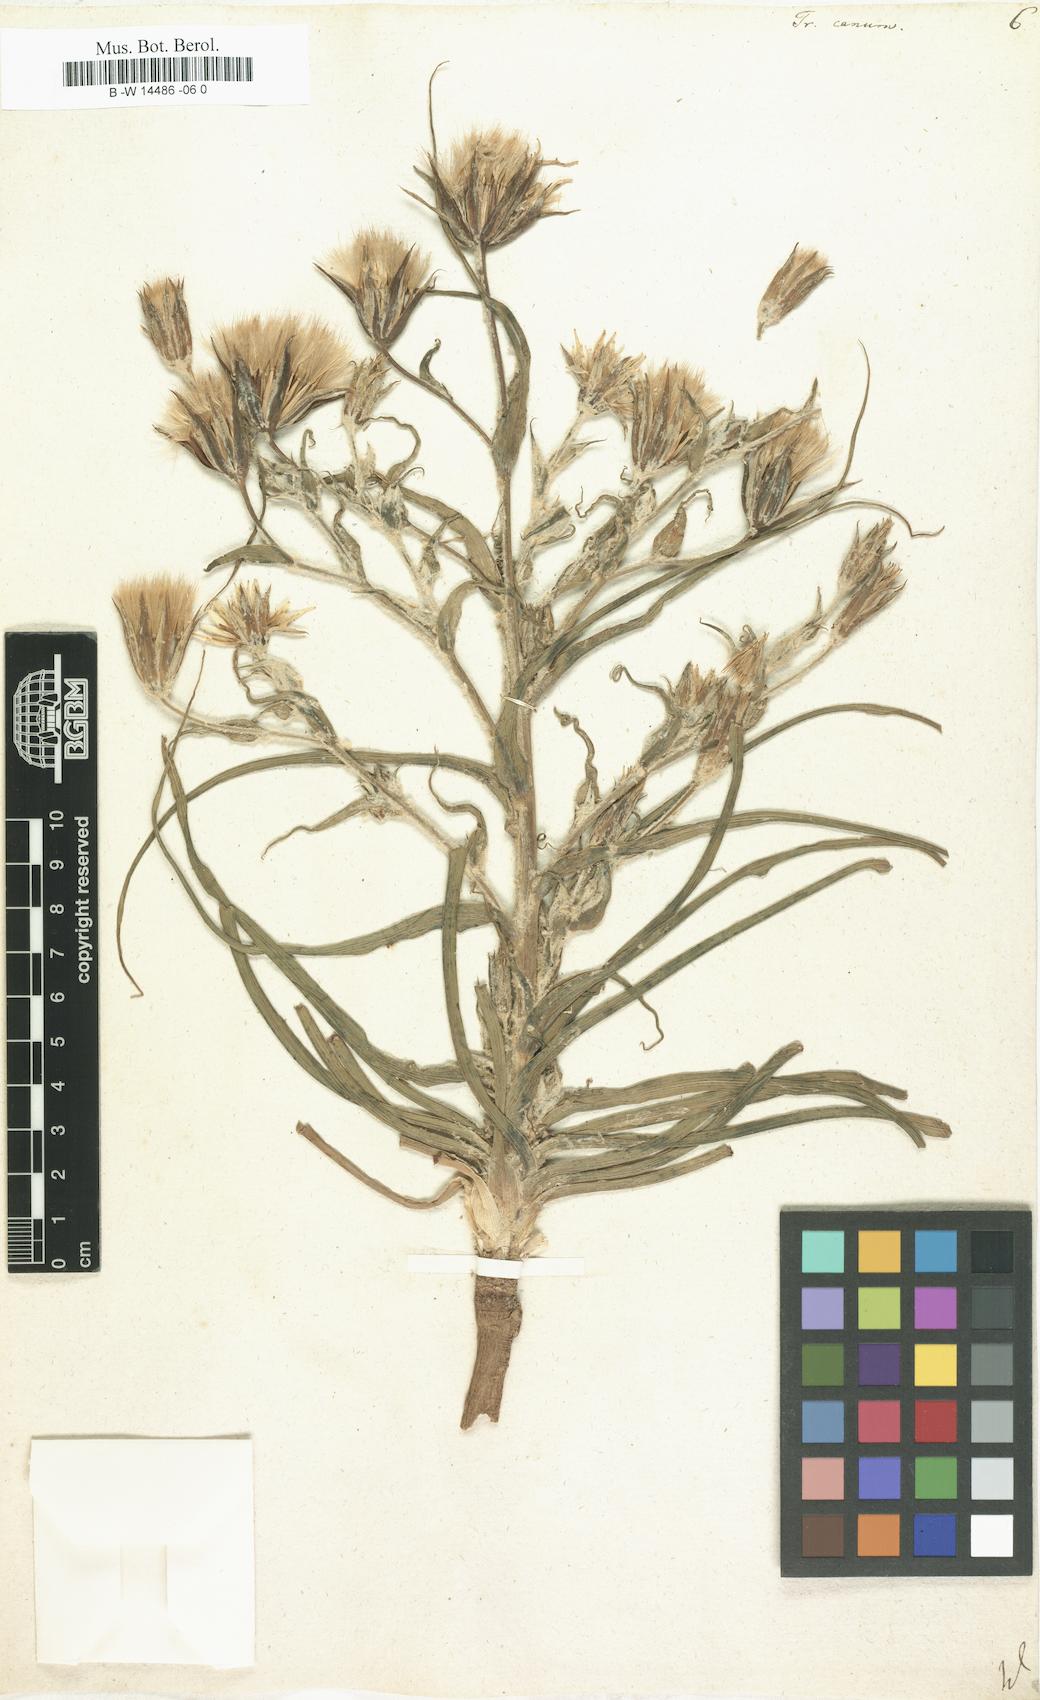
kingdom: Plantae
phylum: Tracheophyta
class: Magnoliopsida
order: Asterales
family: Asteraceae
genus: Tragopogon
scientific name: Tragopogon floccosus
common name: Woolly goatsbeard
